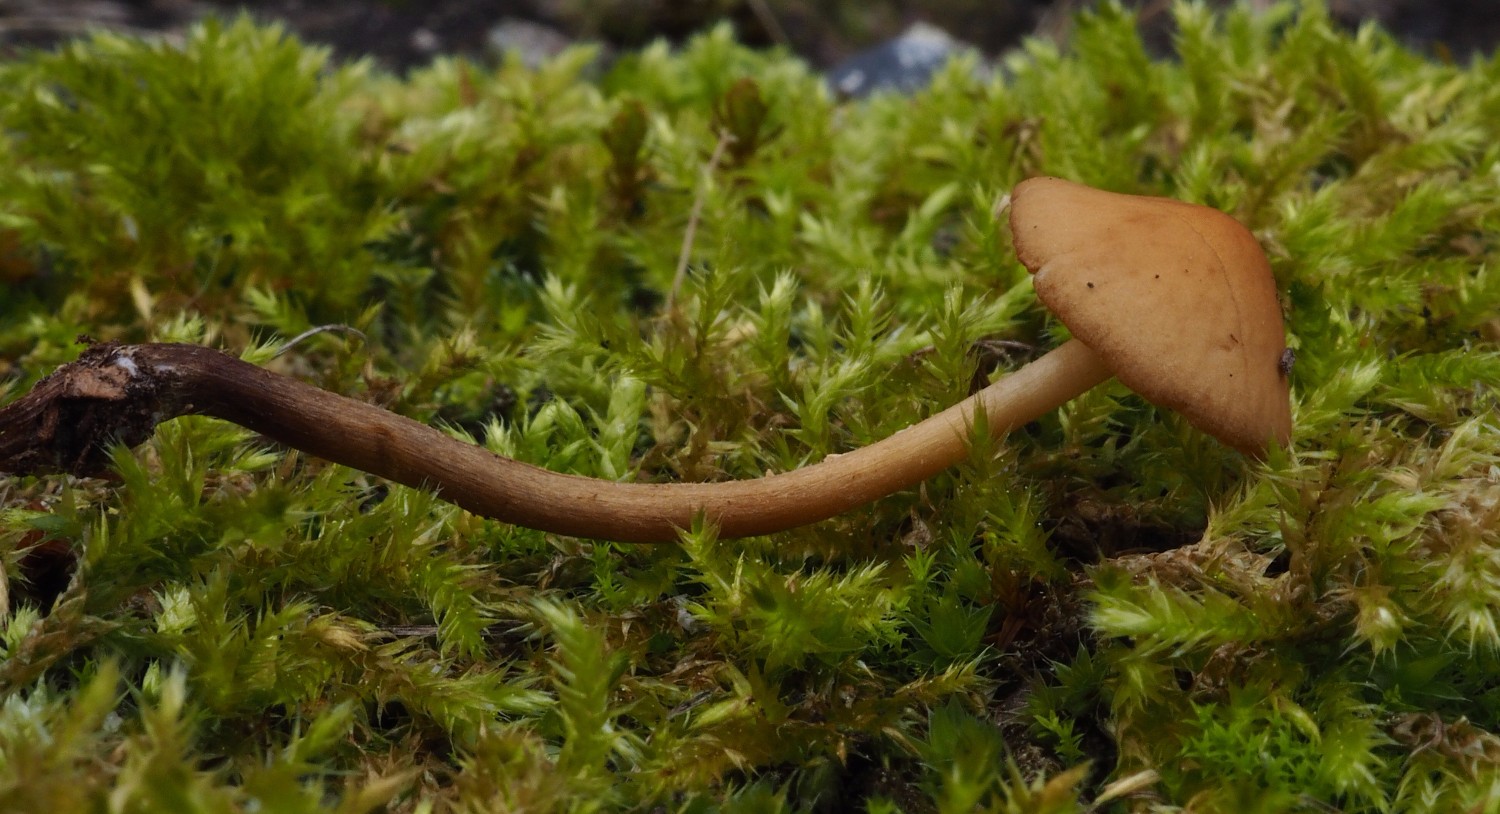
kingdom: Fungi
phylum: Basidiomycota
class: Agaricomycetes
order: Agaricales
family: Bolbitiaceae
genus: Conocybe
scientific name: Conocybe brunnea
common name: slør-dansehat
